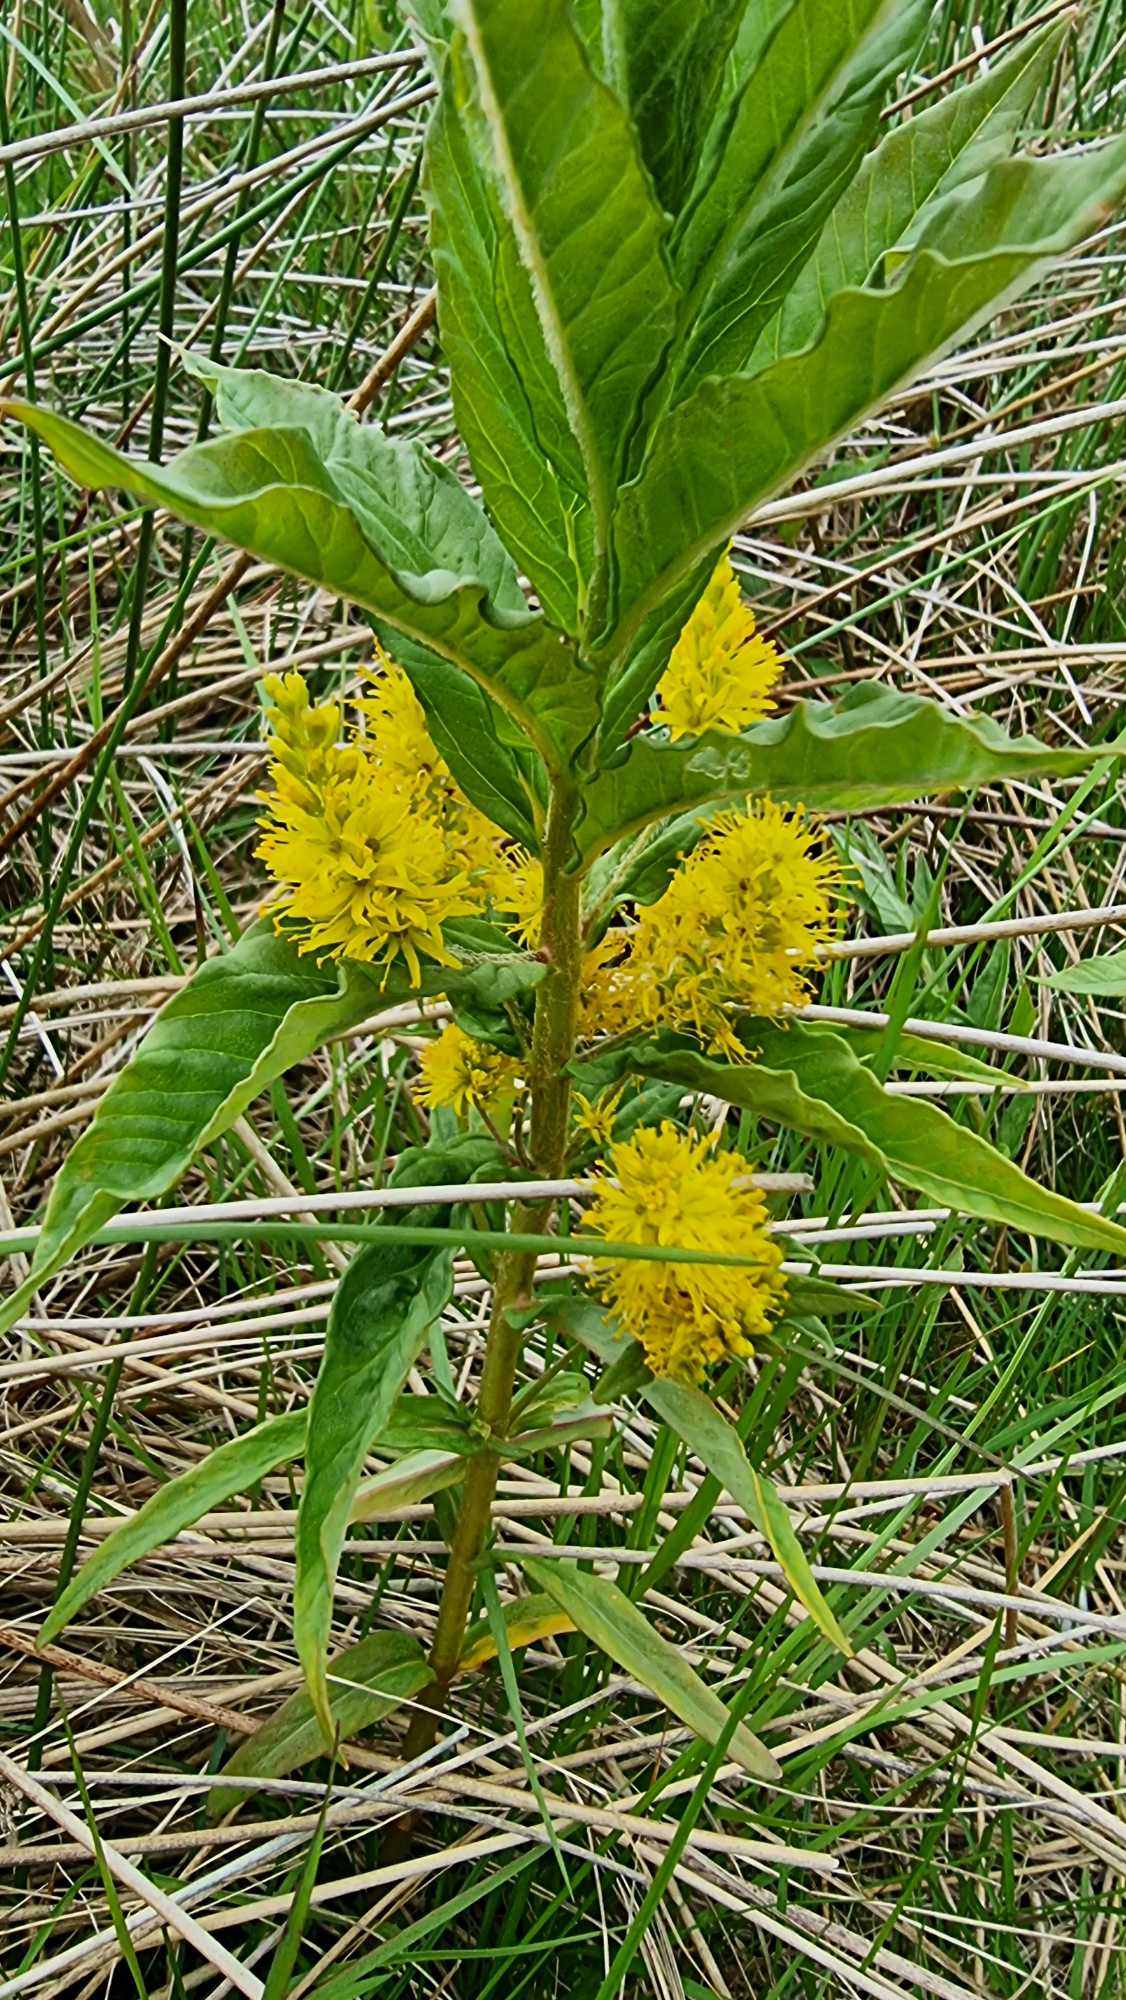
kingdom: Plantae
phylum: Tracheophyta
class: Magnoliopsida
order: Ericales
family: Primulaceae
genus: Lysimachia
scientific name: Lysimachia thyrsiflora
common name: Dusk-fredløs
